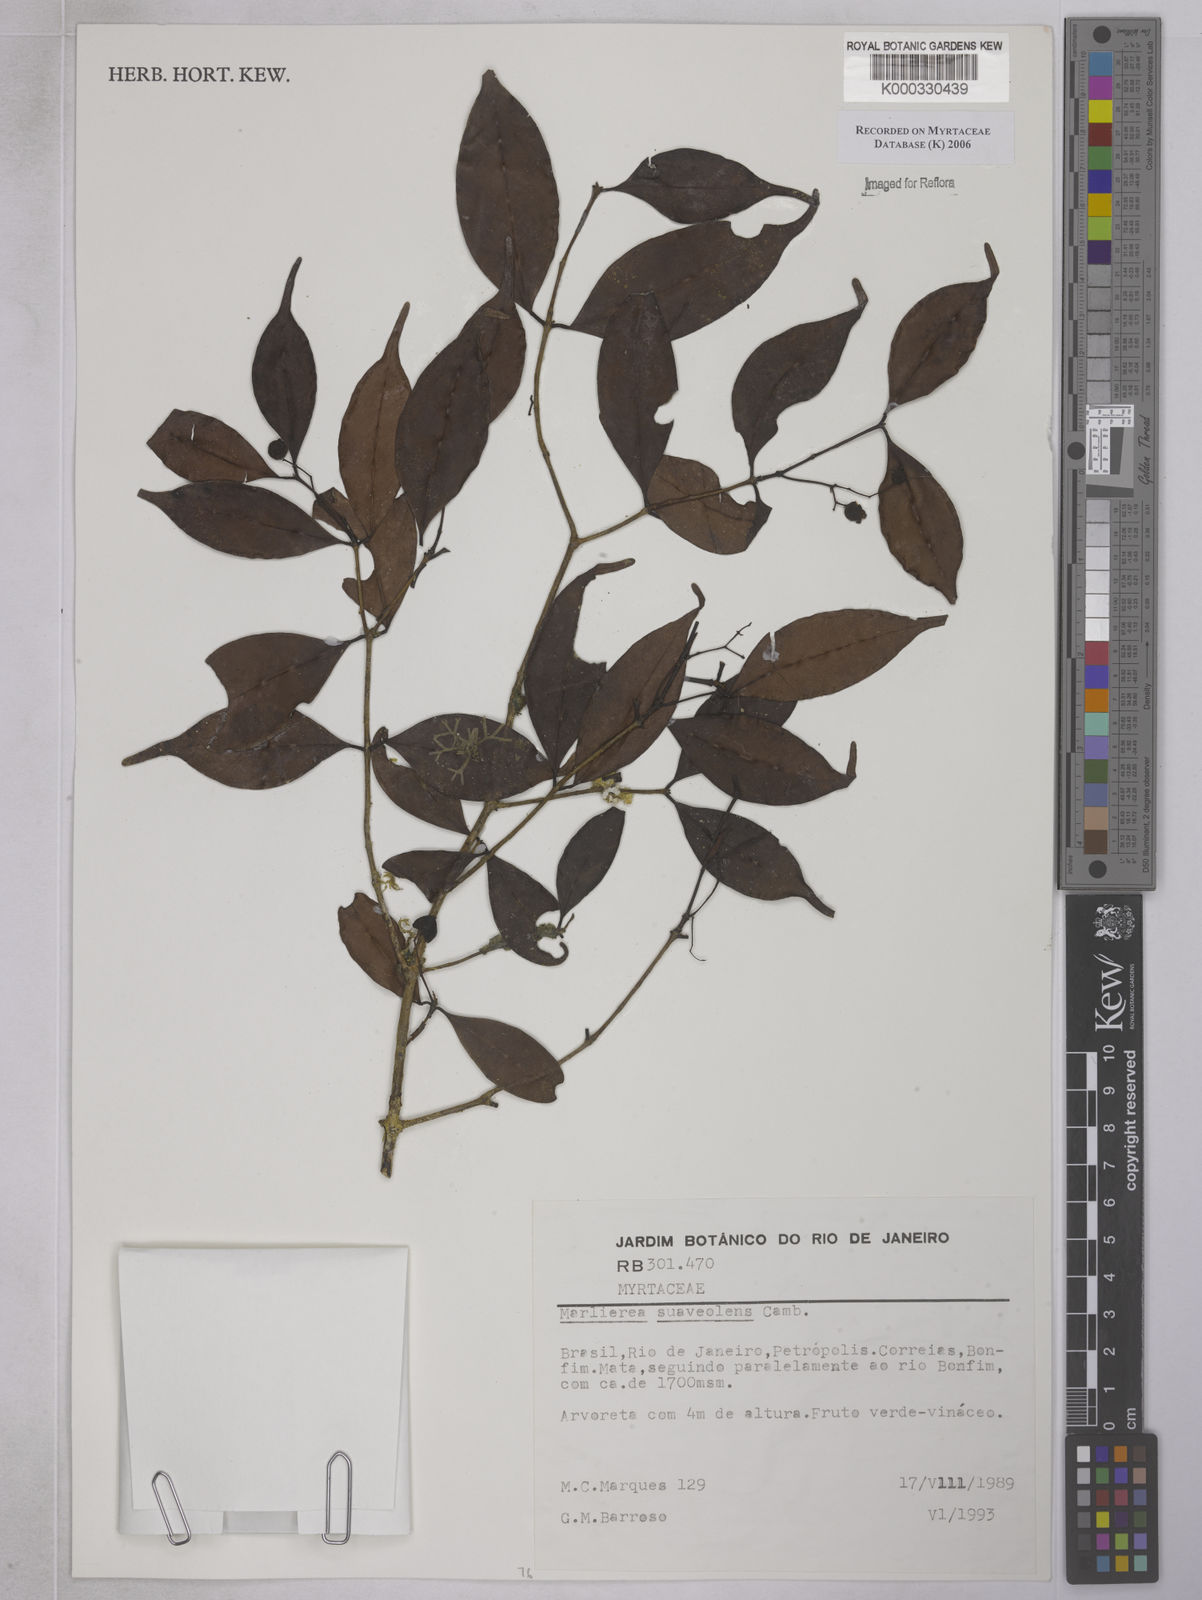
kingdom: Plantae
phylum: Tracheophyta
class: Magnoliopsida
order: Myrtales
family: Myrtaceae
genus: Myrcia
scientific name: Myrcia neosuaveolens
